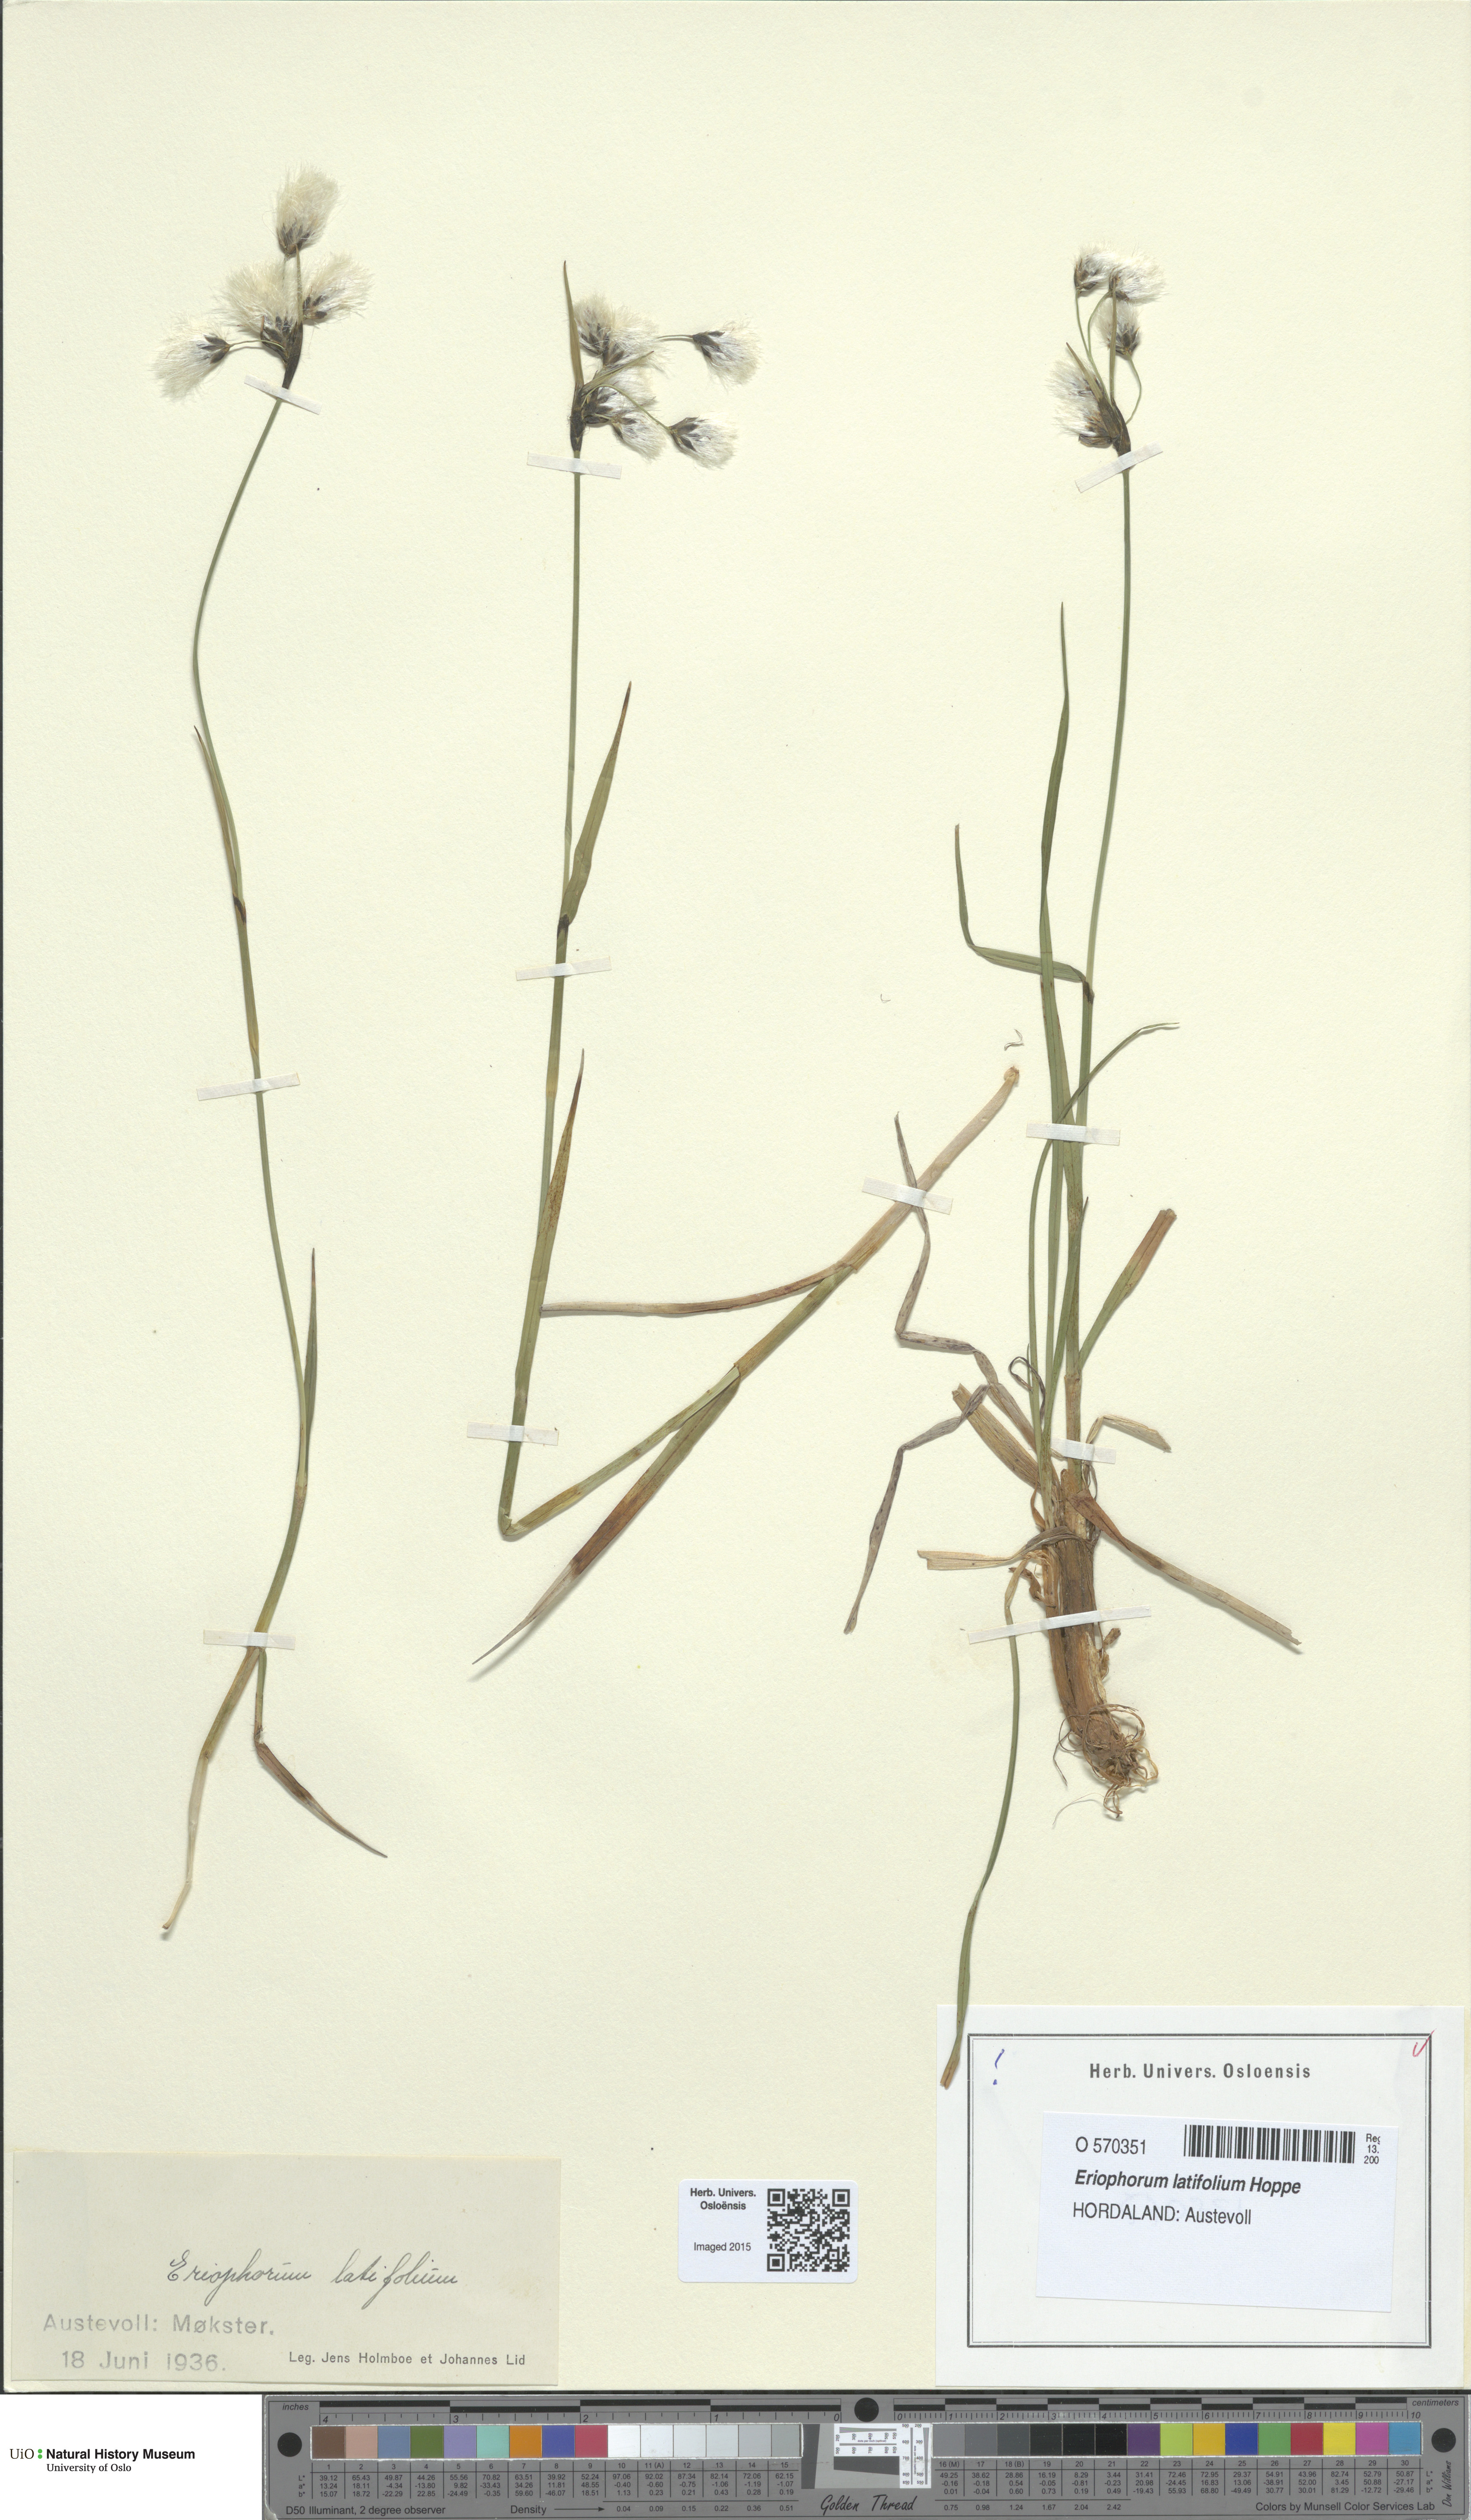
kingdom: Plantae
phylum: Tracheophyta
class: Liliopsida
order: Poales
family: Cyperaceae
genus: Eriophorum
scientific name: Eriophorum latifolium
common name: Broad-leaved cottongrass
